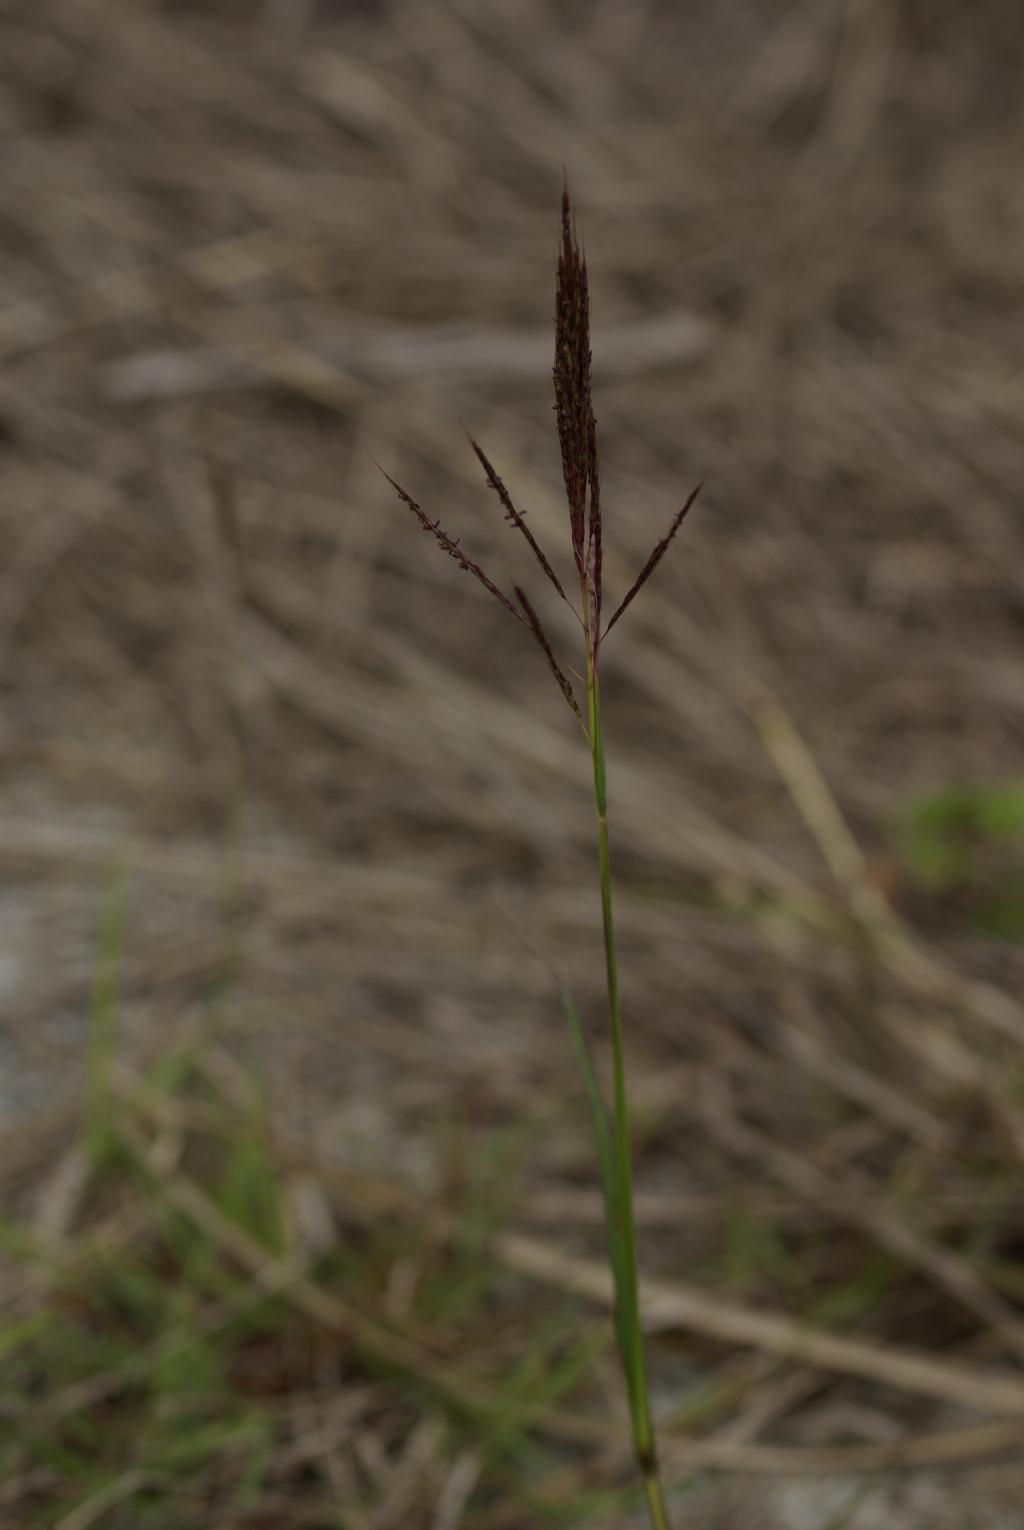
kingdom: Plantae
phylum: Tracheophyta
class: Liliopsida
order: Poales
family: Poaceae
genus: Bothriochloa
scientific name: Bothriochloa bladhii
